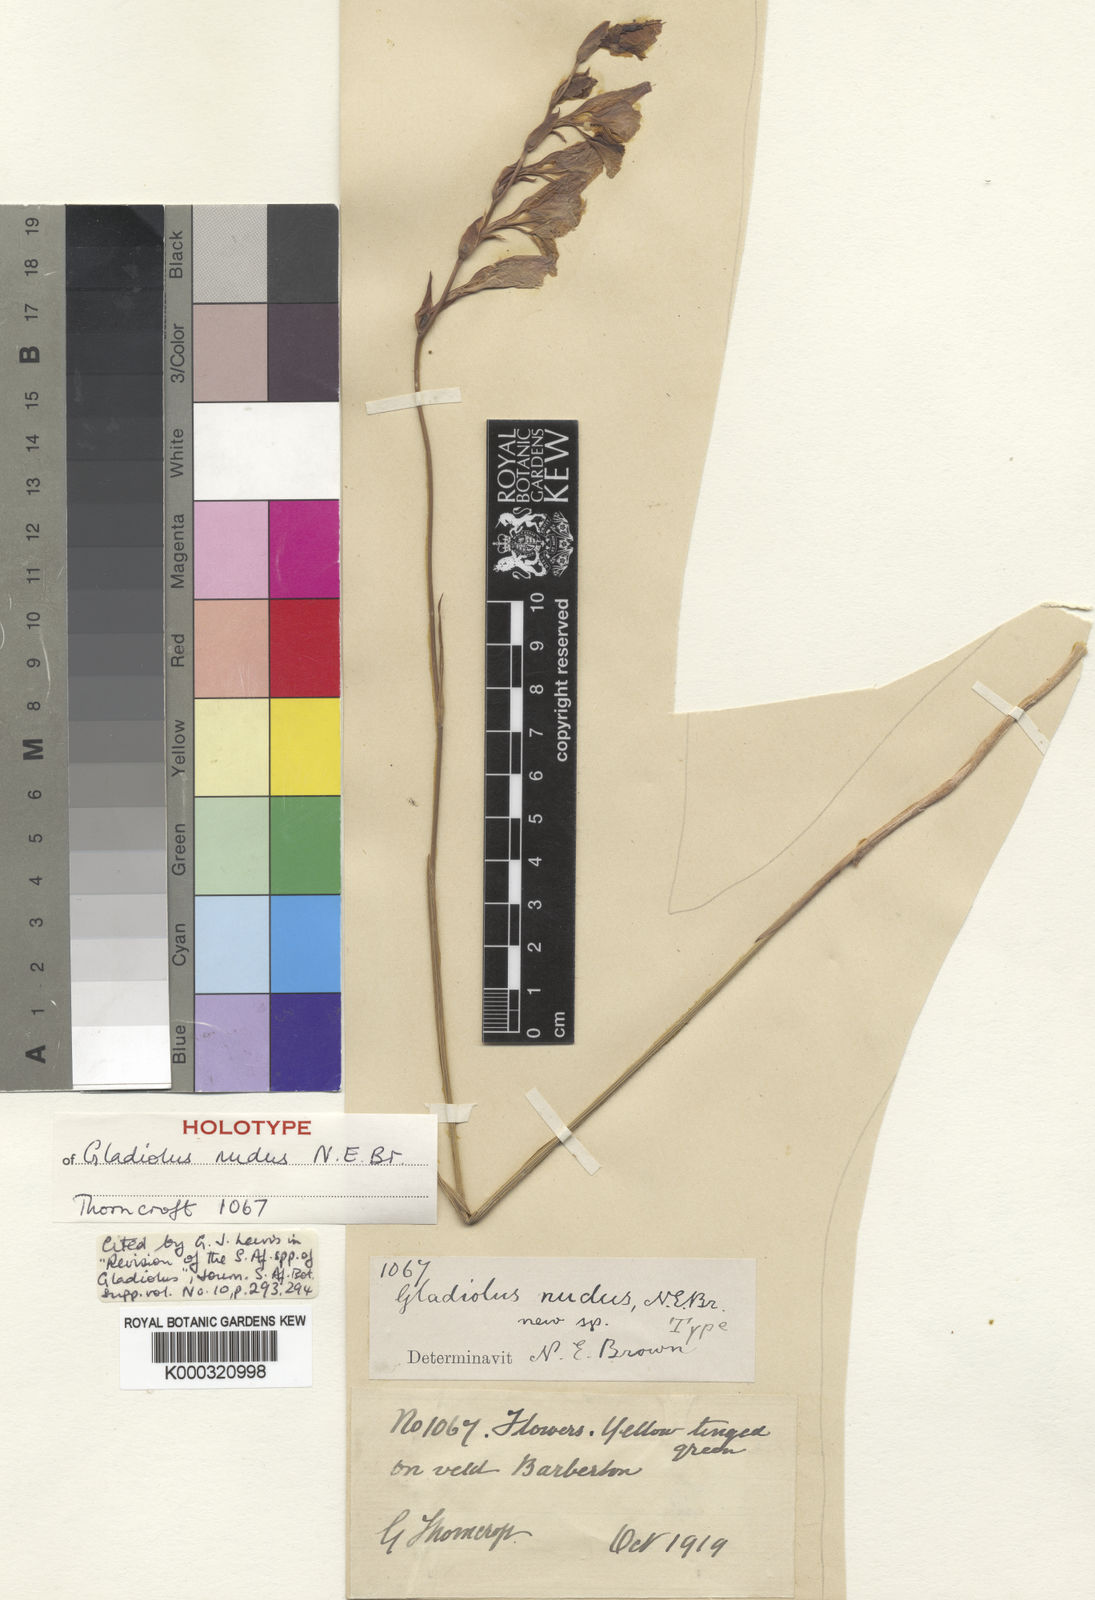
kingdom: Plantae
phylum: Tracheophyta
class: Liliopsida
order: Asparagales
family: Iridaceae
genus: Gladiolus
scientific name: Gladiolus woodii
